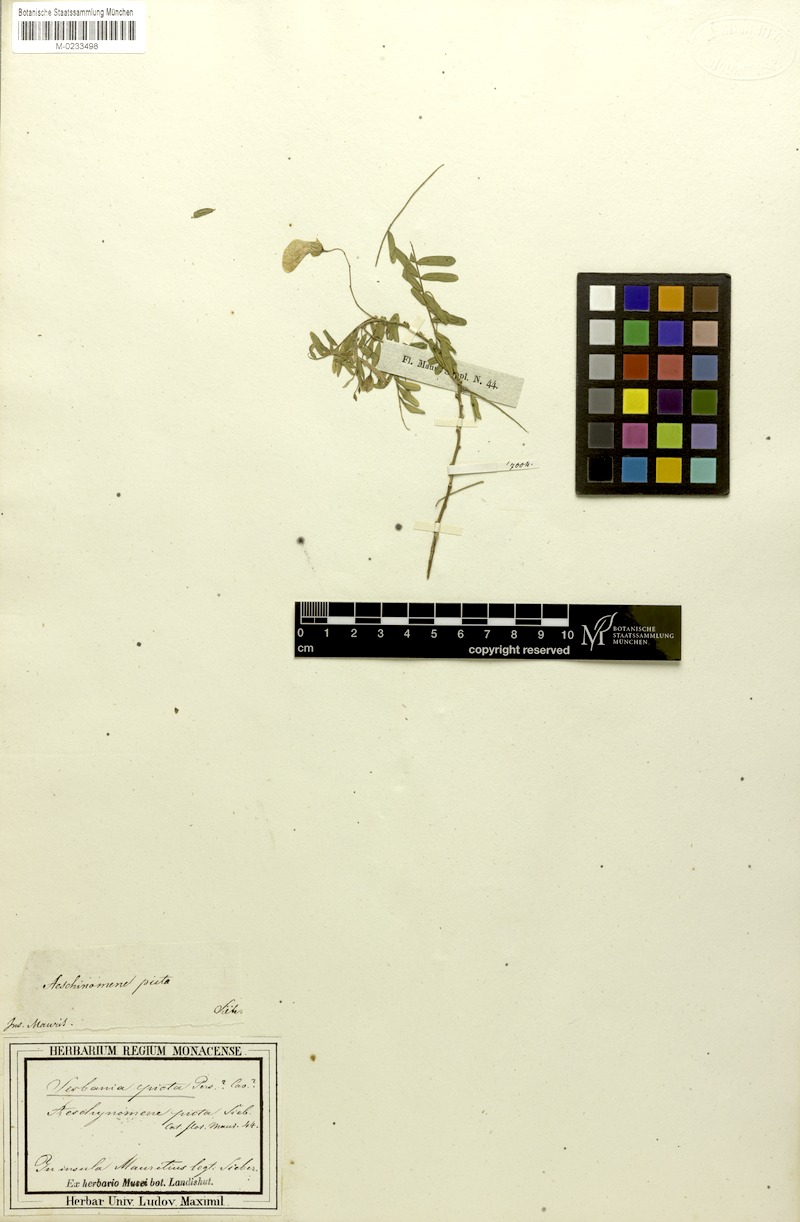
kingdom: Plantae
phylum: Tracheophyta
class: Magnoliopsida
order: Fabales
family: Fabaceae
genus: Sesbania
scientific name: Sesbania sesban
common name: Egyptian sesban
